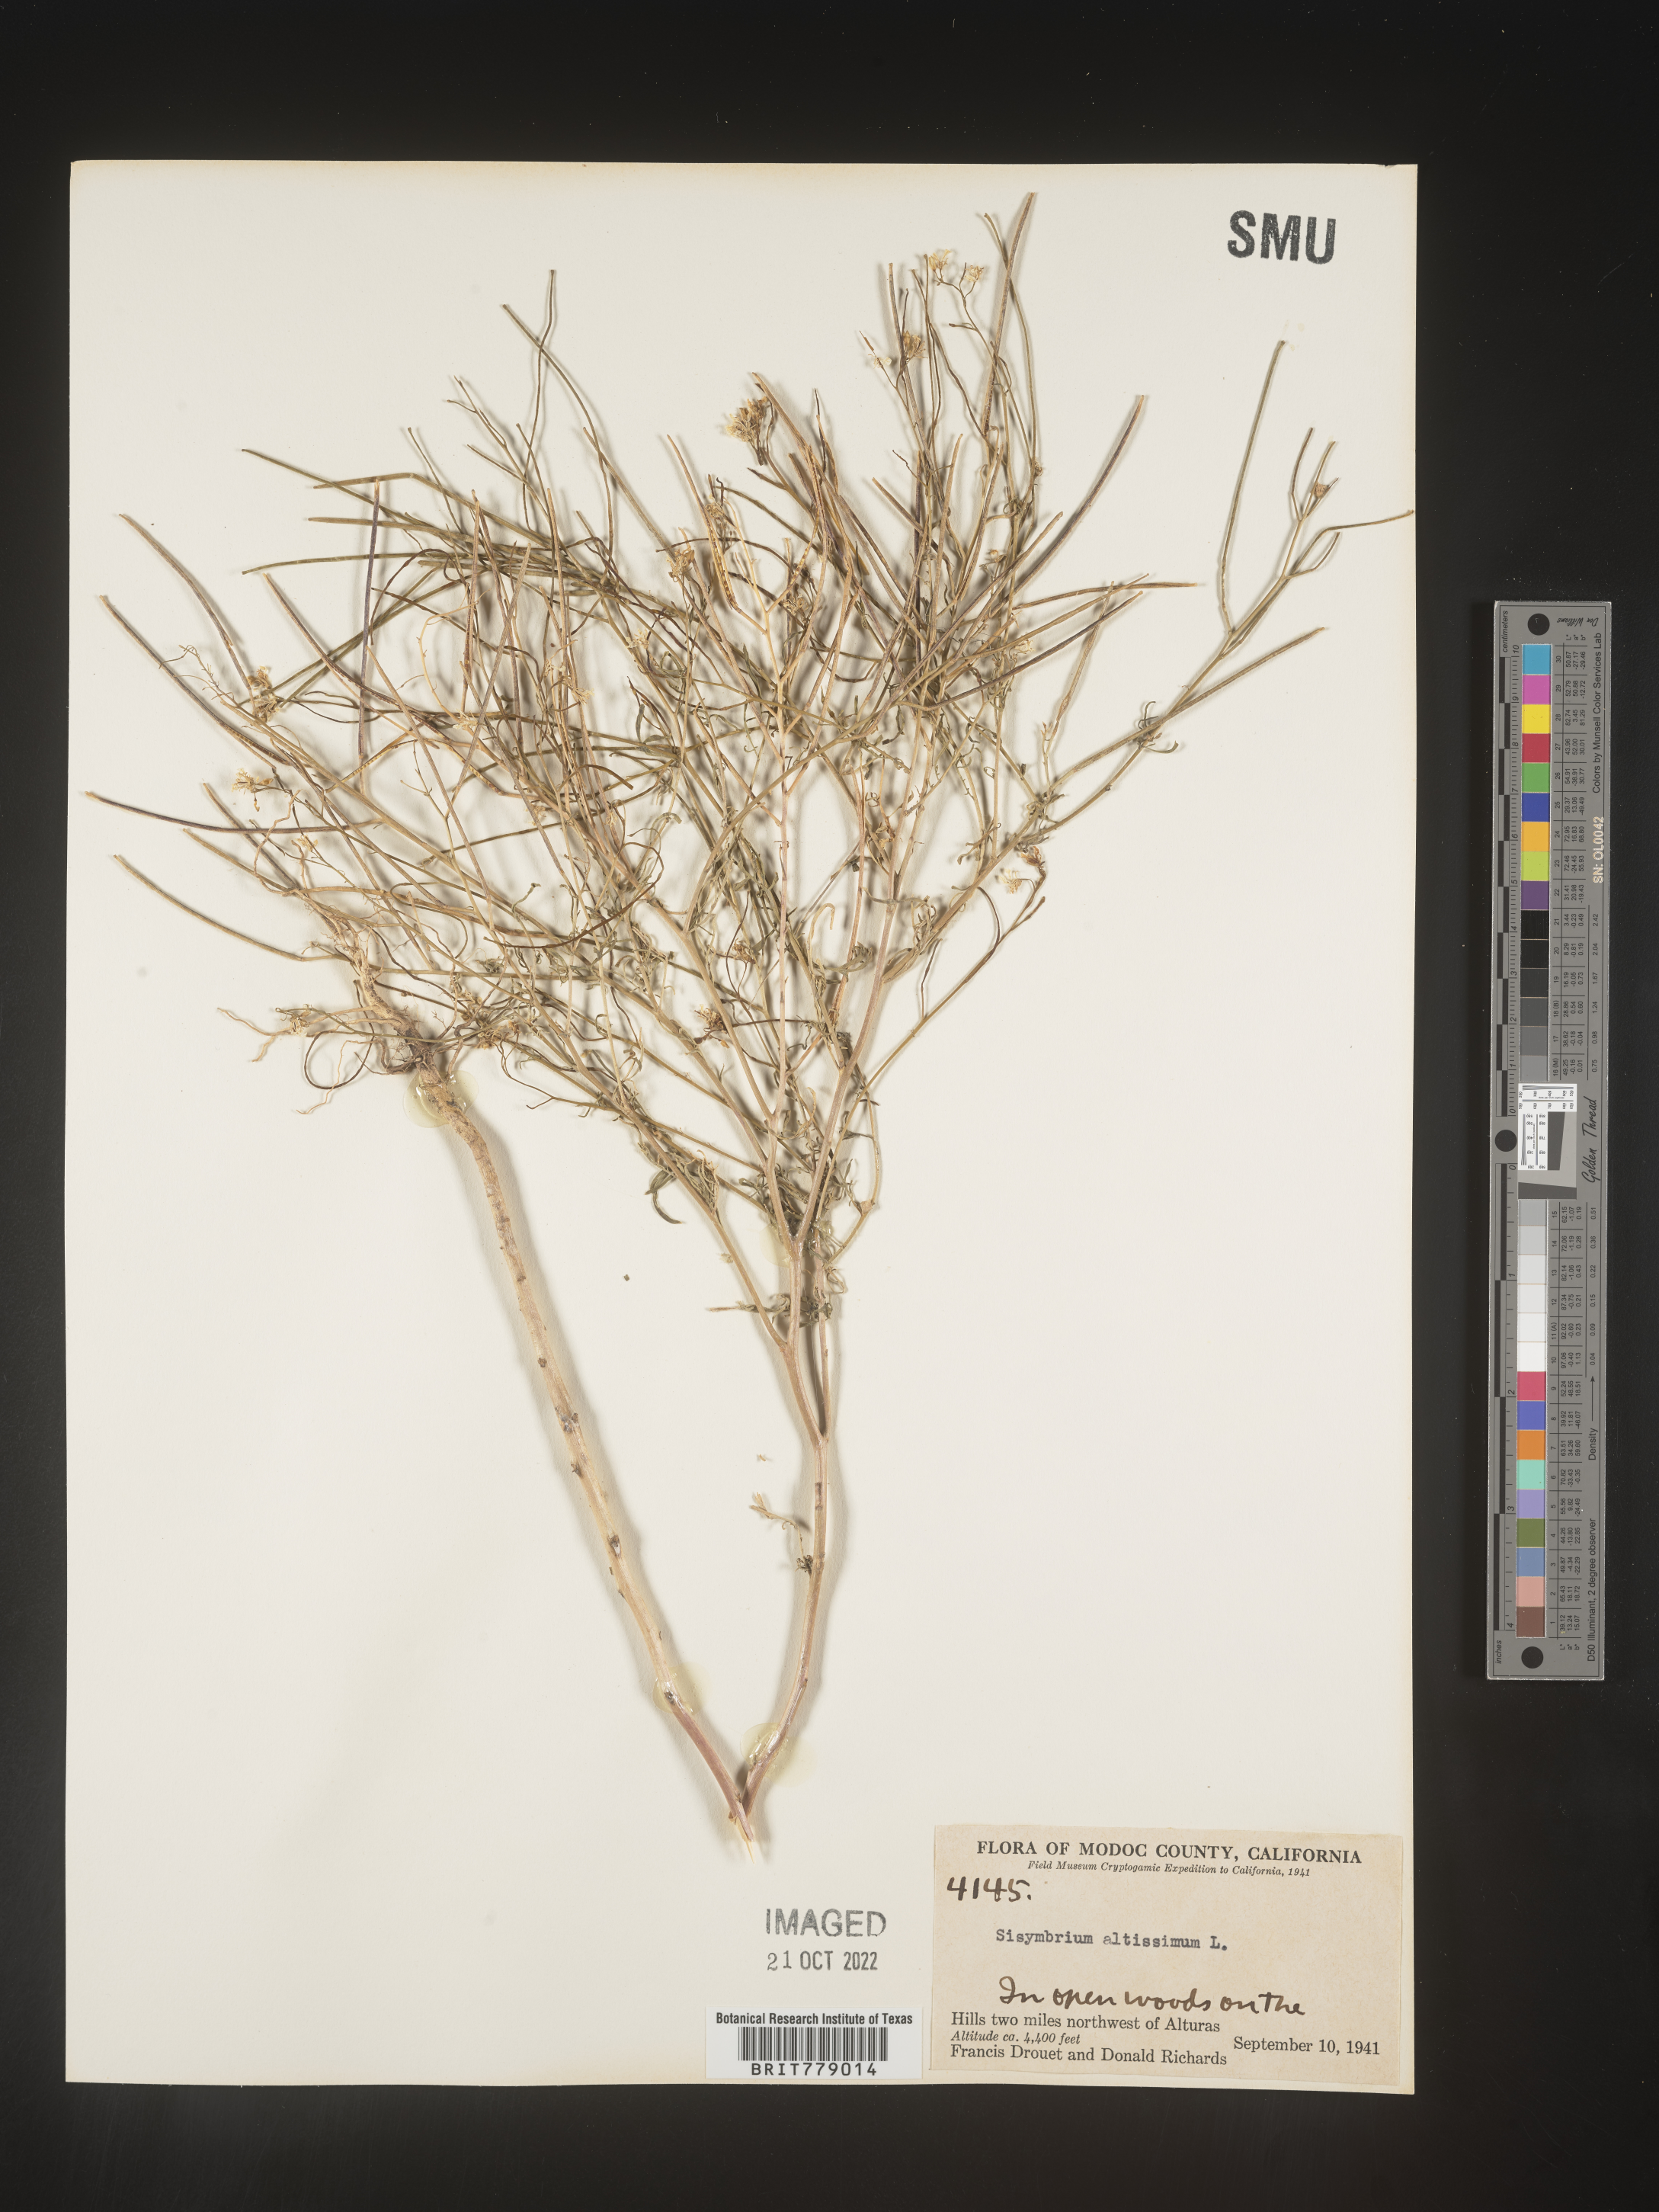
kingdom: Plantae
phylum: Tracheophyta
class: Magnoliopsida
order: Brassicales
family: Brassicaceae
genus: Sisymbrium
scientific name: Sisymbrium altissimum
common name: Tall rocket
